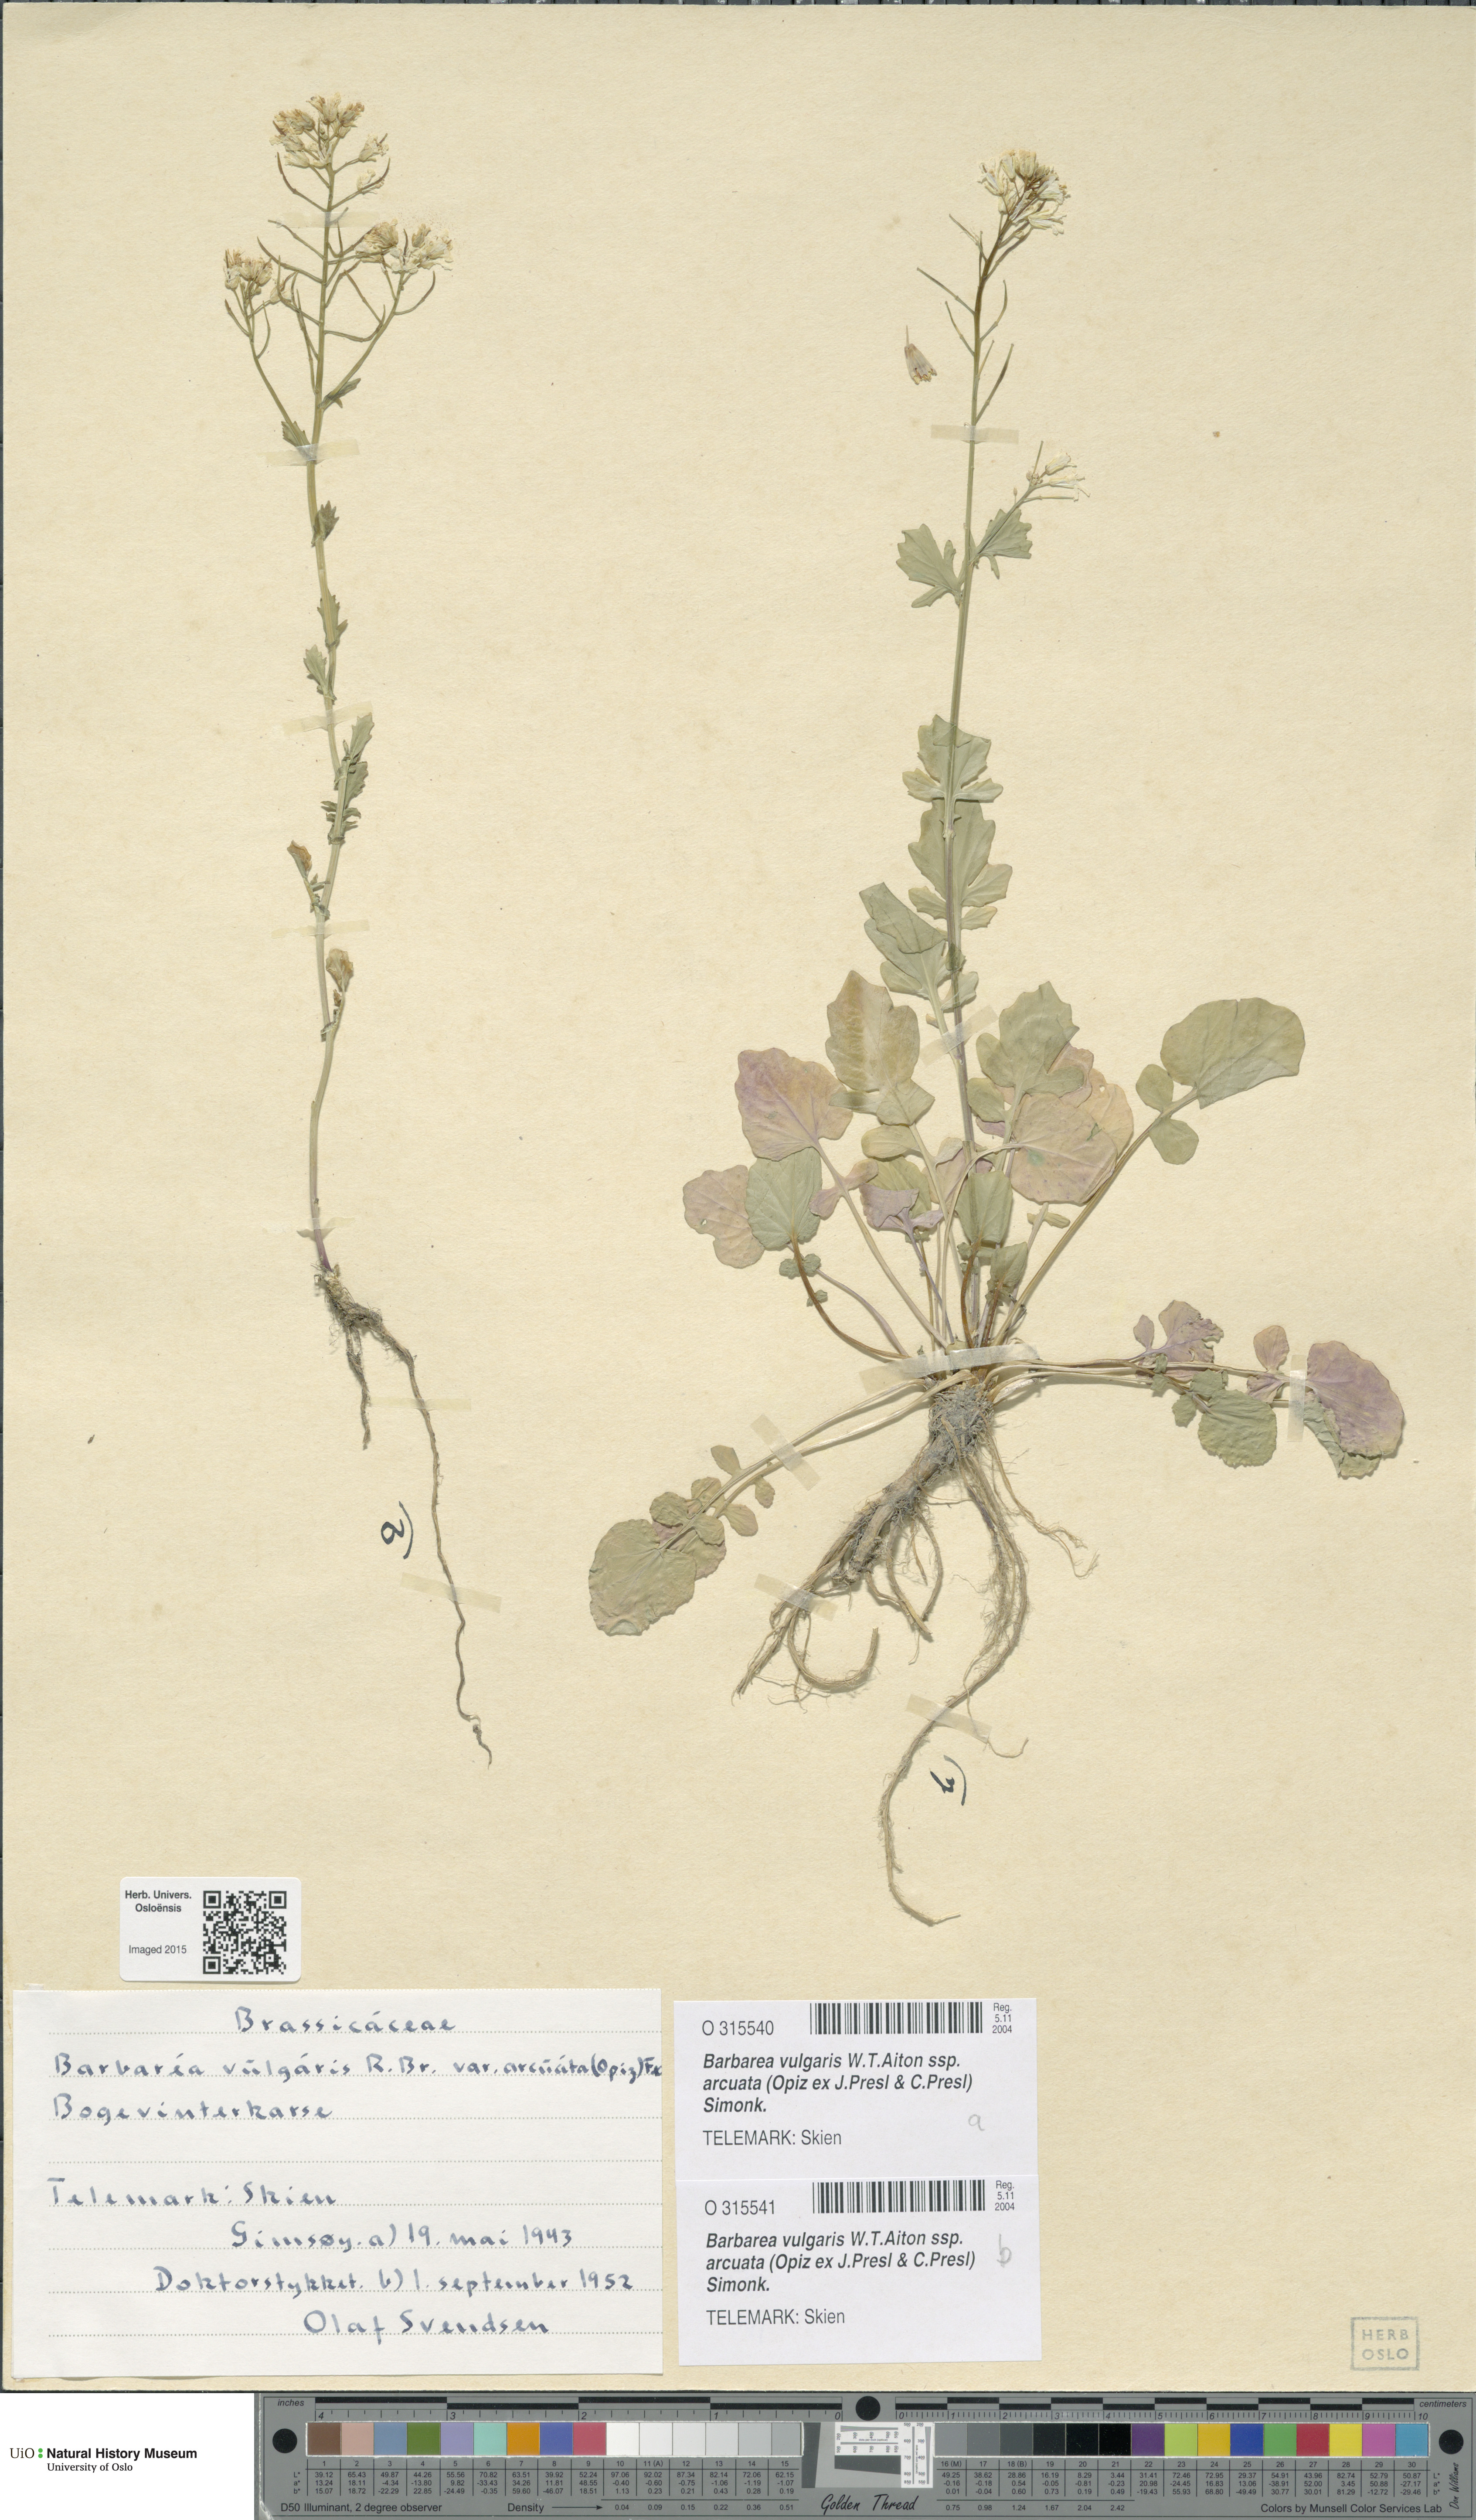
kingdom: Plantae
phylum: Tracheophyta
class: Magnoliopsida
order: Brassicales
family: Brassicaceae
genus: Barbarea
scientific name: Barbarea vulgaris
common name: Cressy-greens
